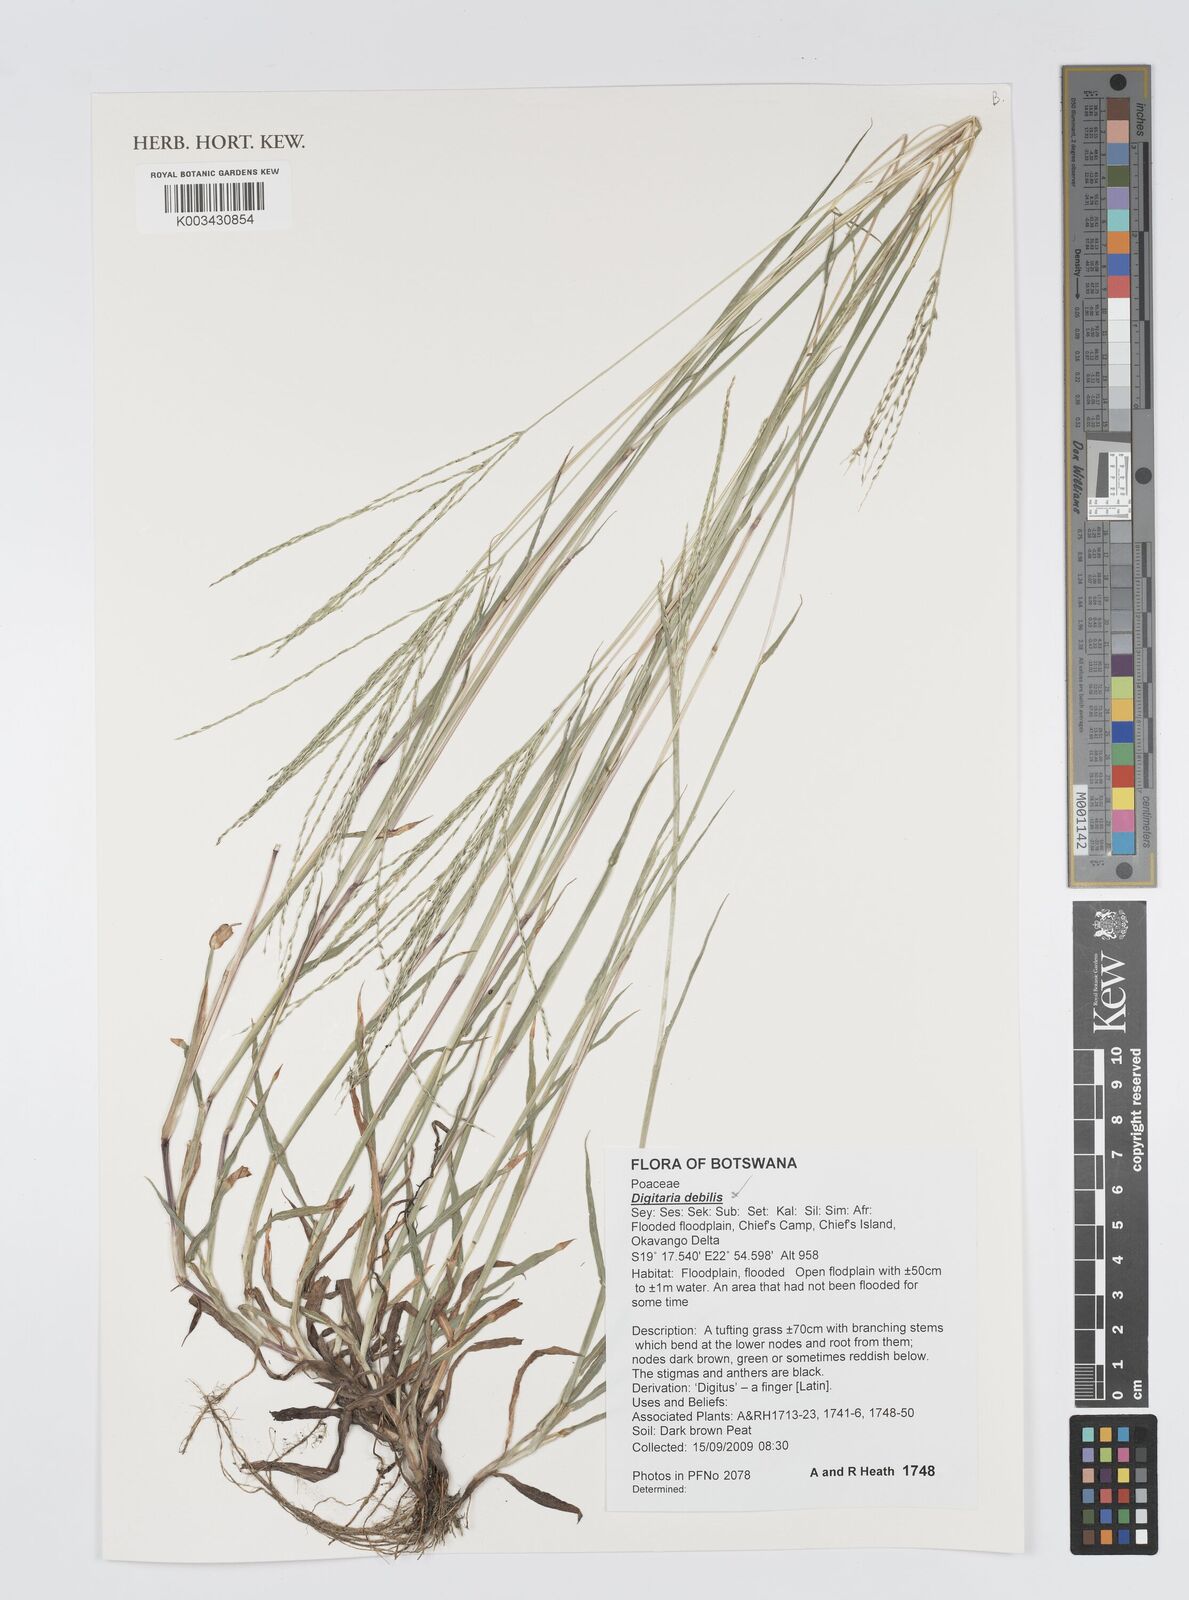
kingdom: Plantae
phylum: Tracheophyta
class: Liliopsida
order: Poales
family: Poaceae
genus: Digitaria
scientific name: Digitaria debilis
